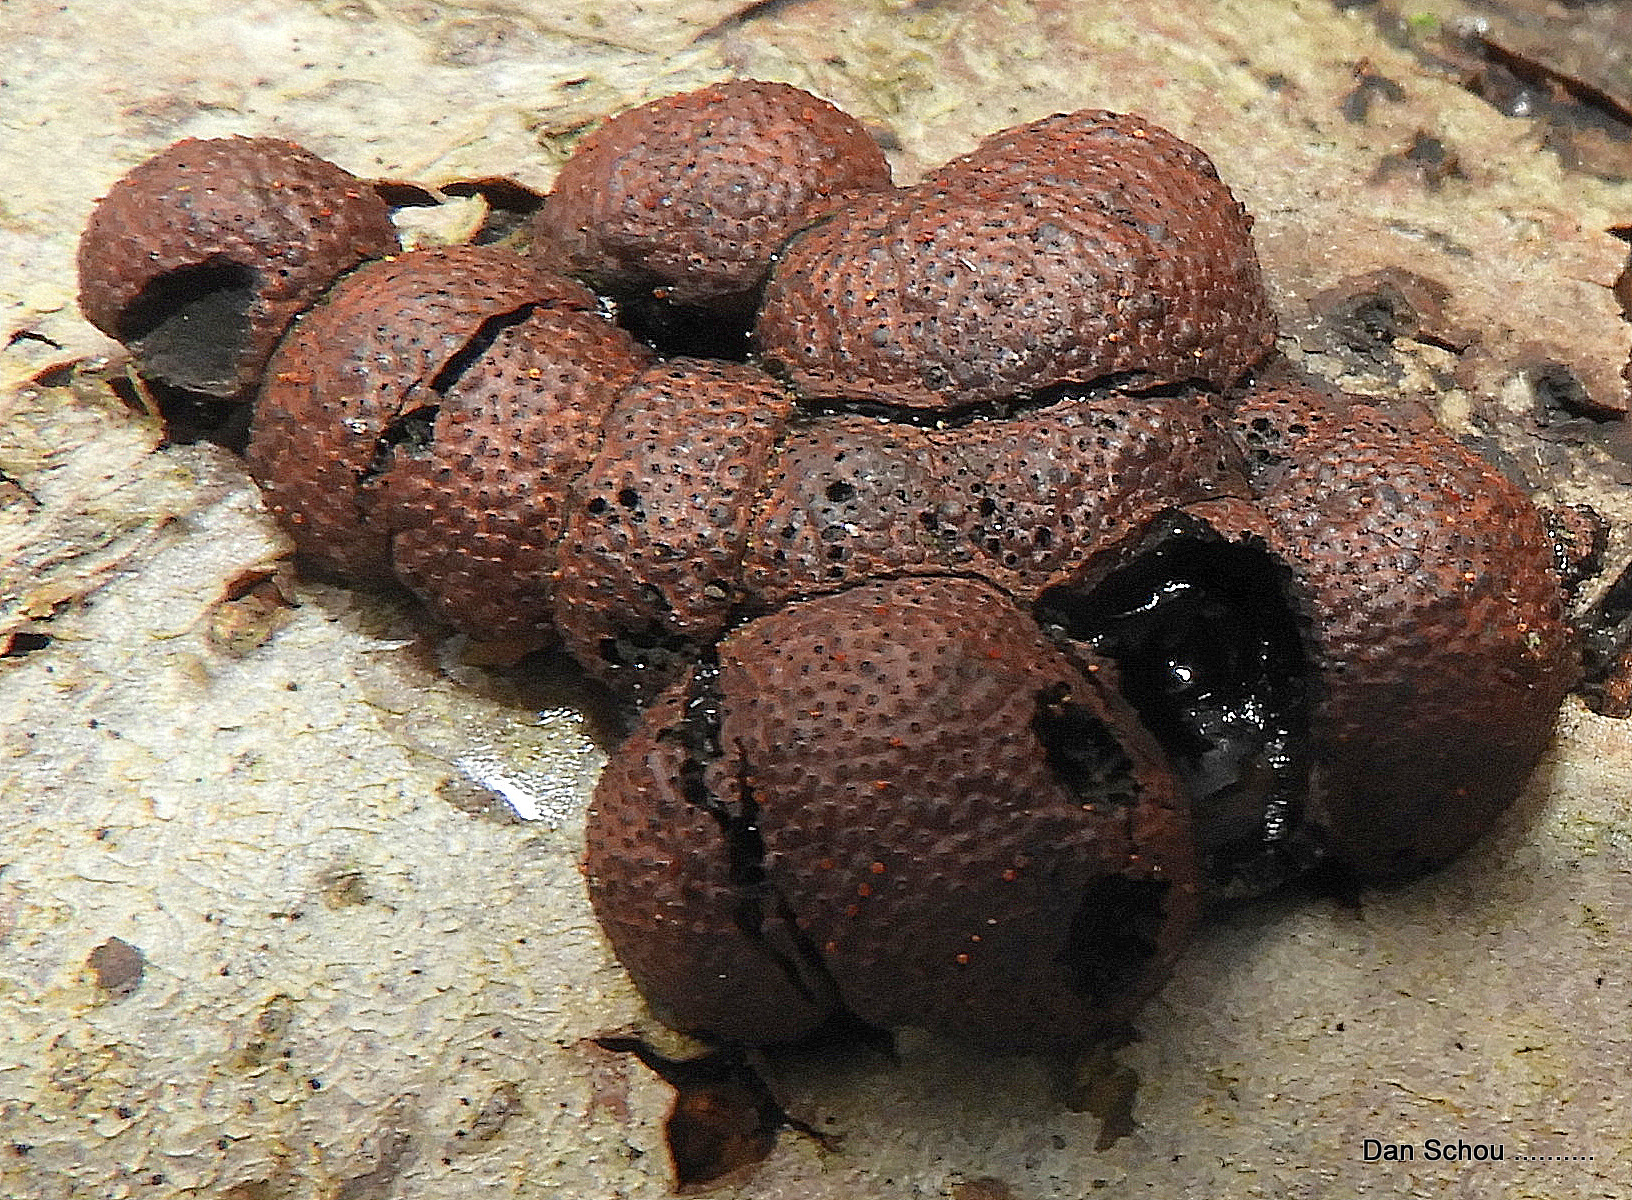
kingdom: Fungi
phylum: Ascomycota
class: Sordariomycetes
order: Xylariales
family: Hypoxylaceae
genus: Hypoxylon
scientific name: Hypoxylon fragiforme
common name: kuljordbær
